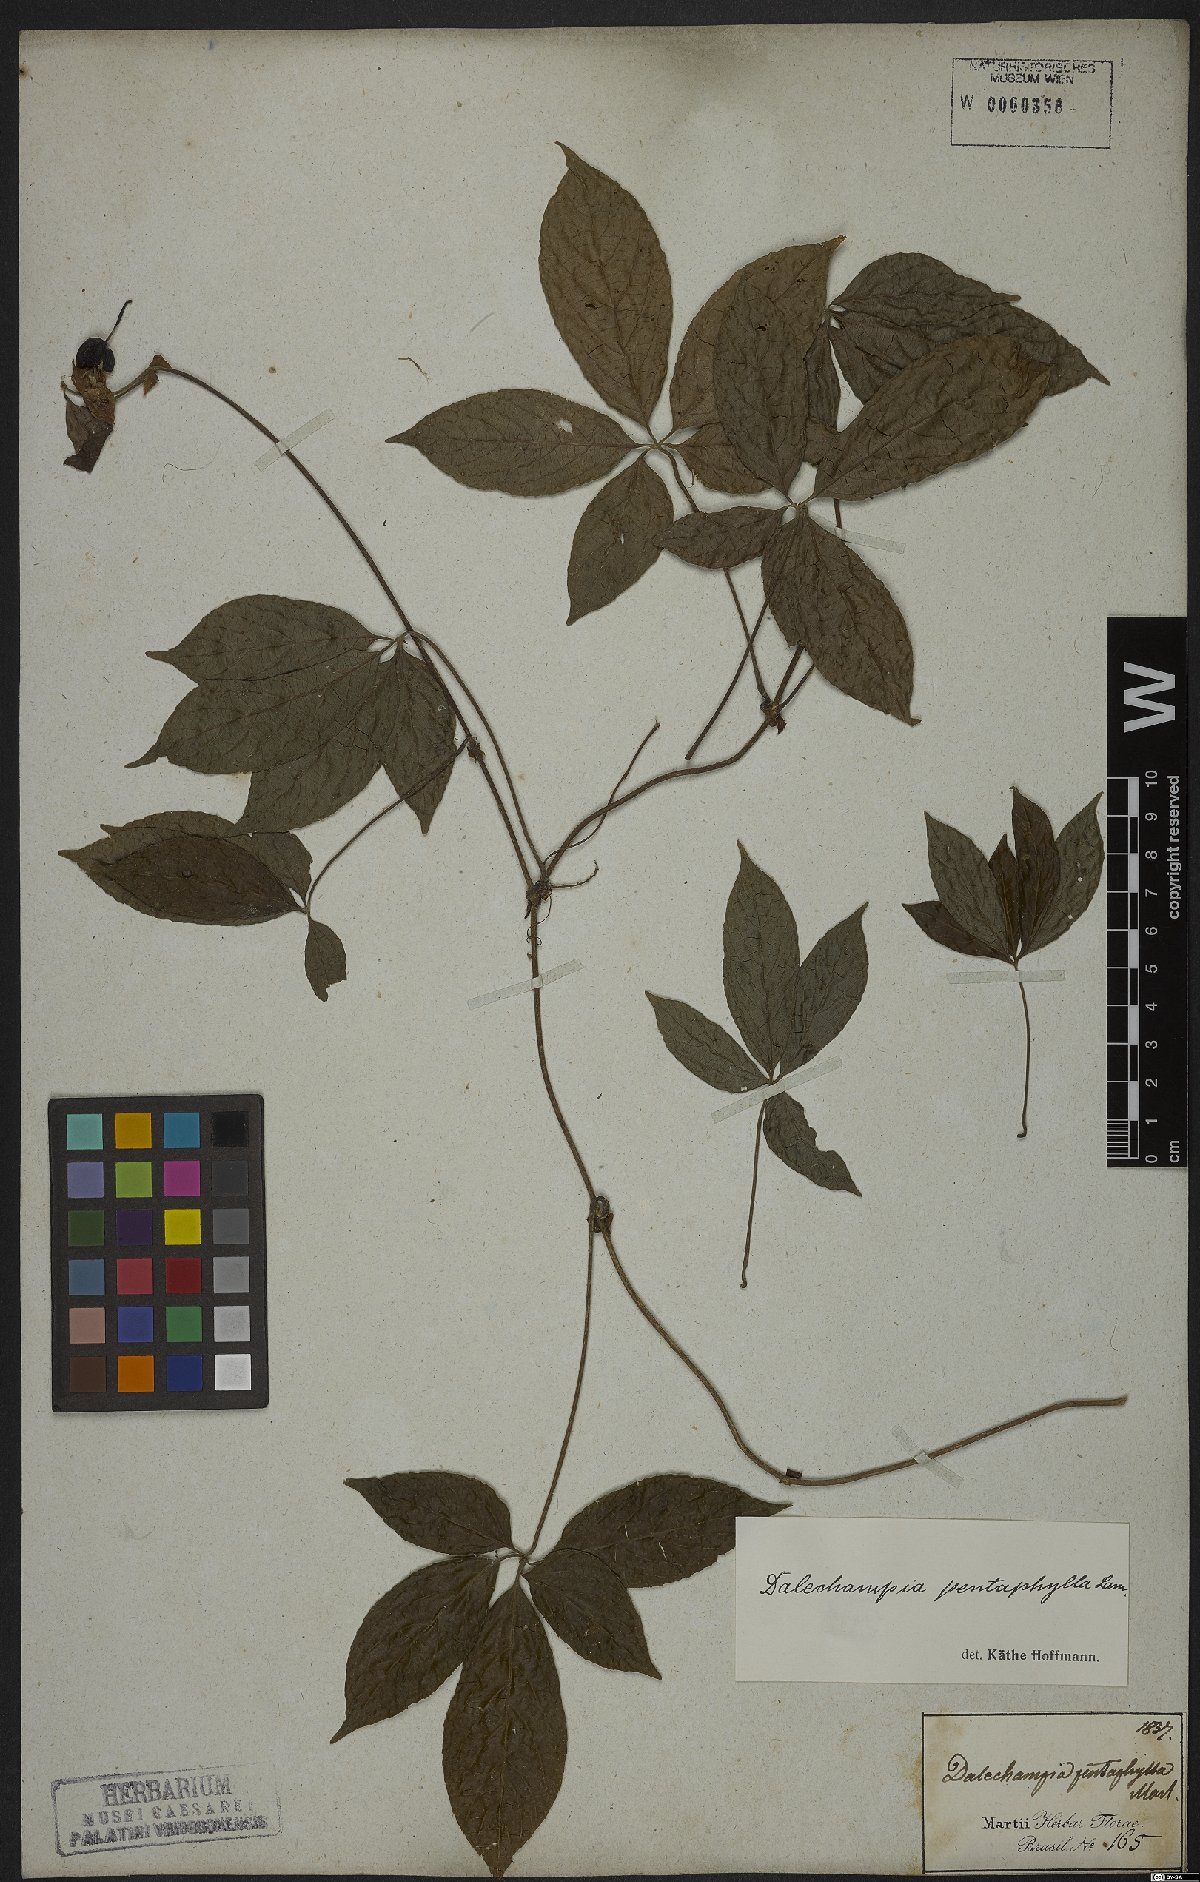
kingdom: Plantae
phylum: Tracheophyta
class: Magnoliopsida
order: Malpighiales
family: Euphorbiaceae
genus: Dalechampia
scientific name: Dalechampia pentaphylla
